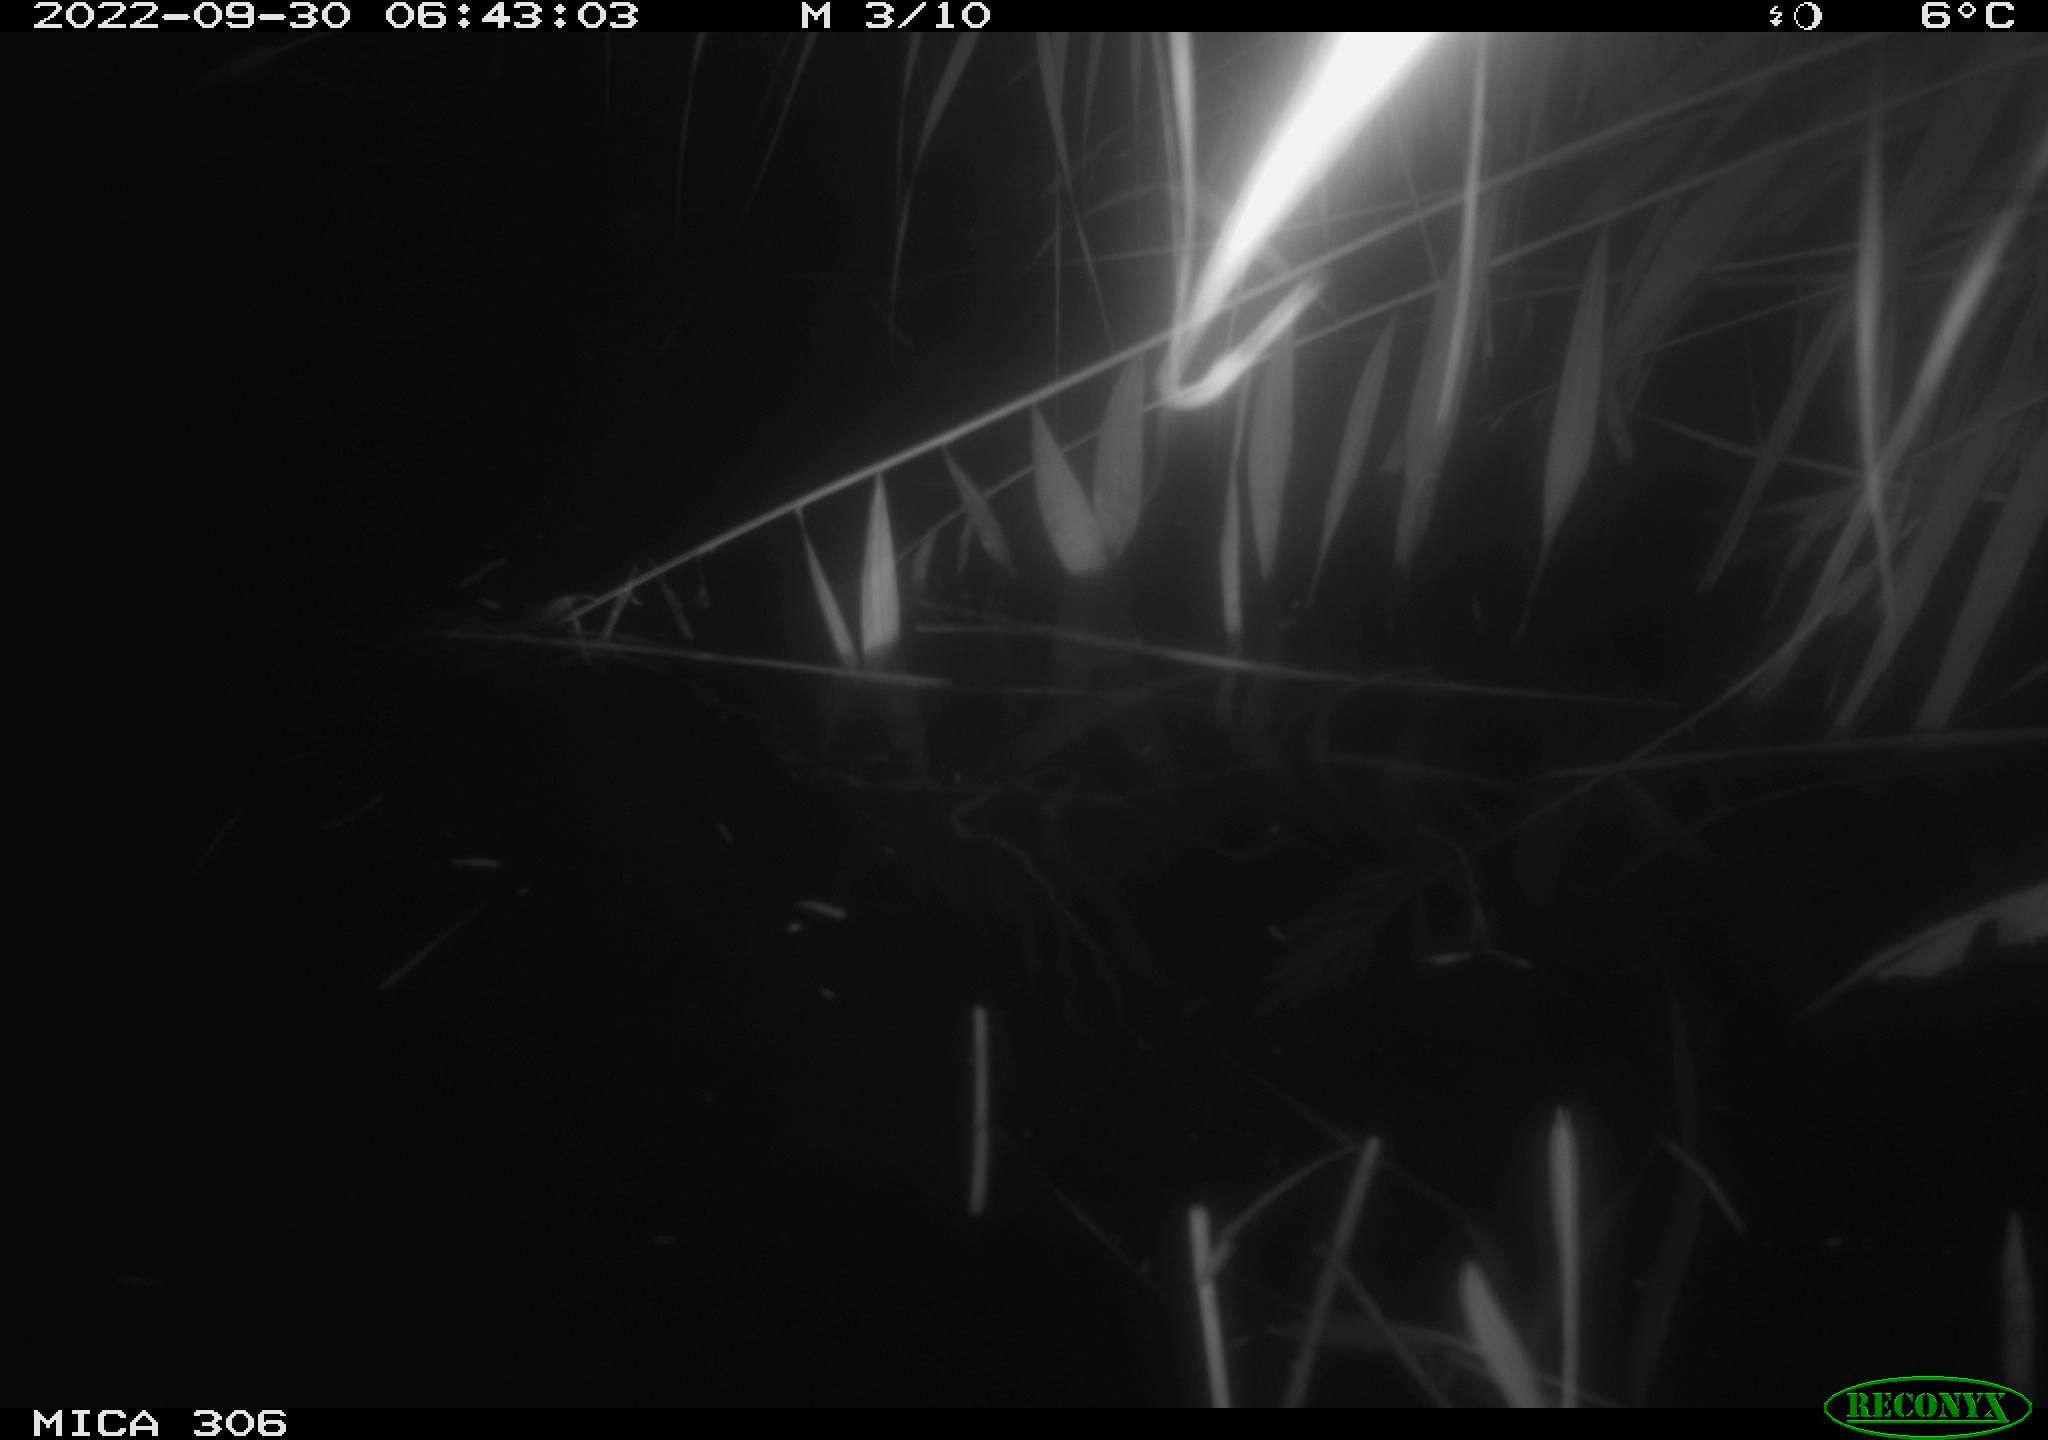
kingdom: Animalia
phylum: Chordata
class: Mammalia
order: Rodentia
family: Cricetidae
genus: Ondatra
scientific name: Ondatra zibethicus
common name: Muskrat
